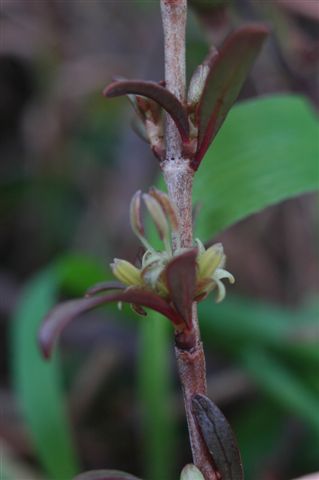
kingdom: Plantae
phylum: Tracheophyta
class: Magnoliopsida
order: Gentianales
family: Rubiaceae
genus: Coprosma
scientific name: Coprosma acerosa
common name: Sand coprosma
